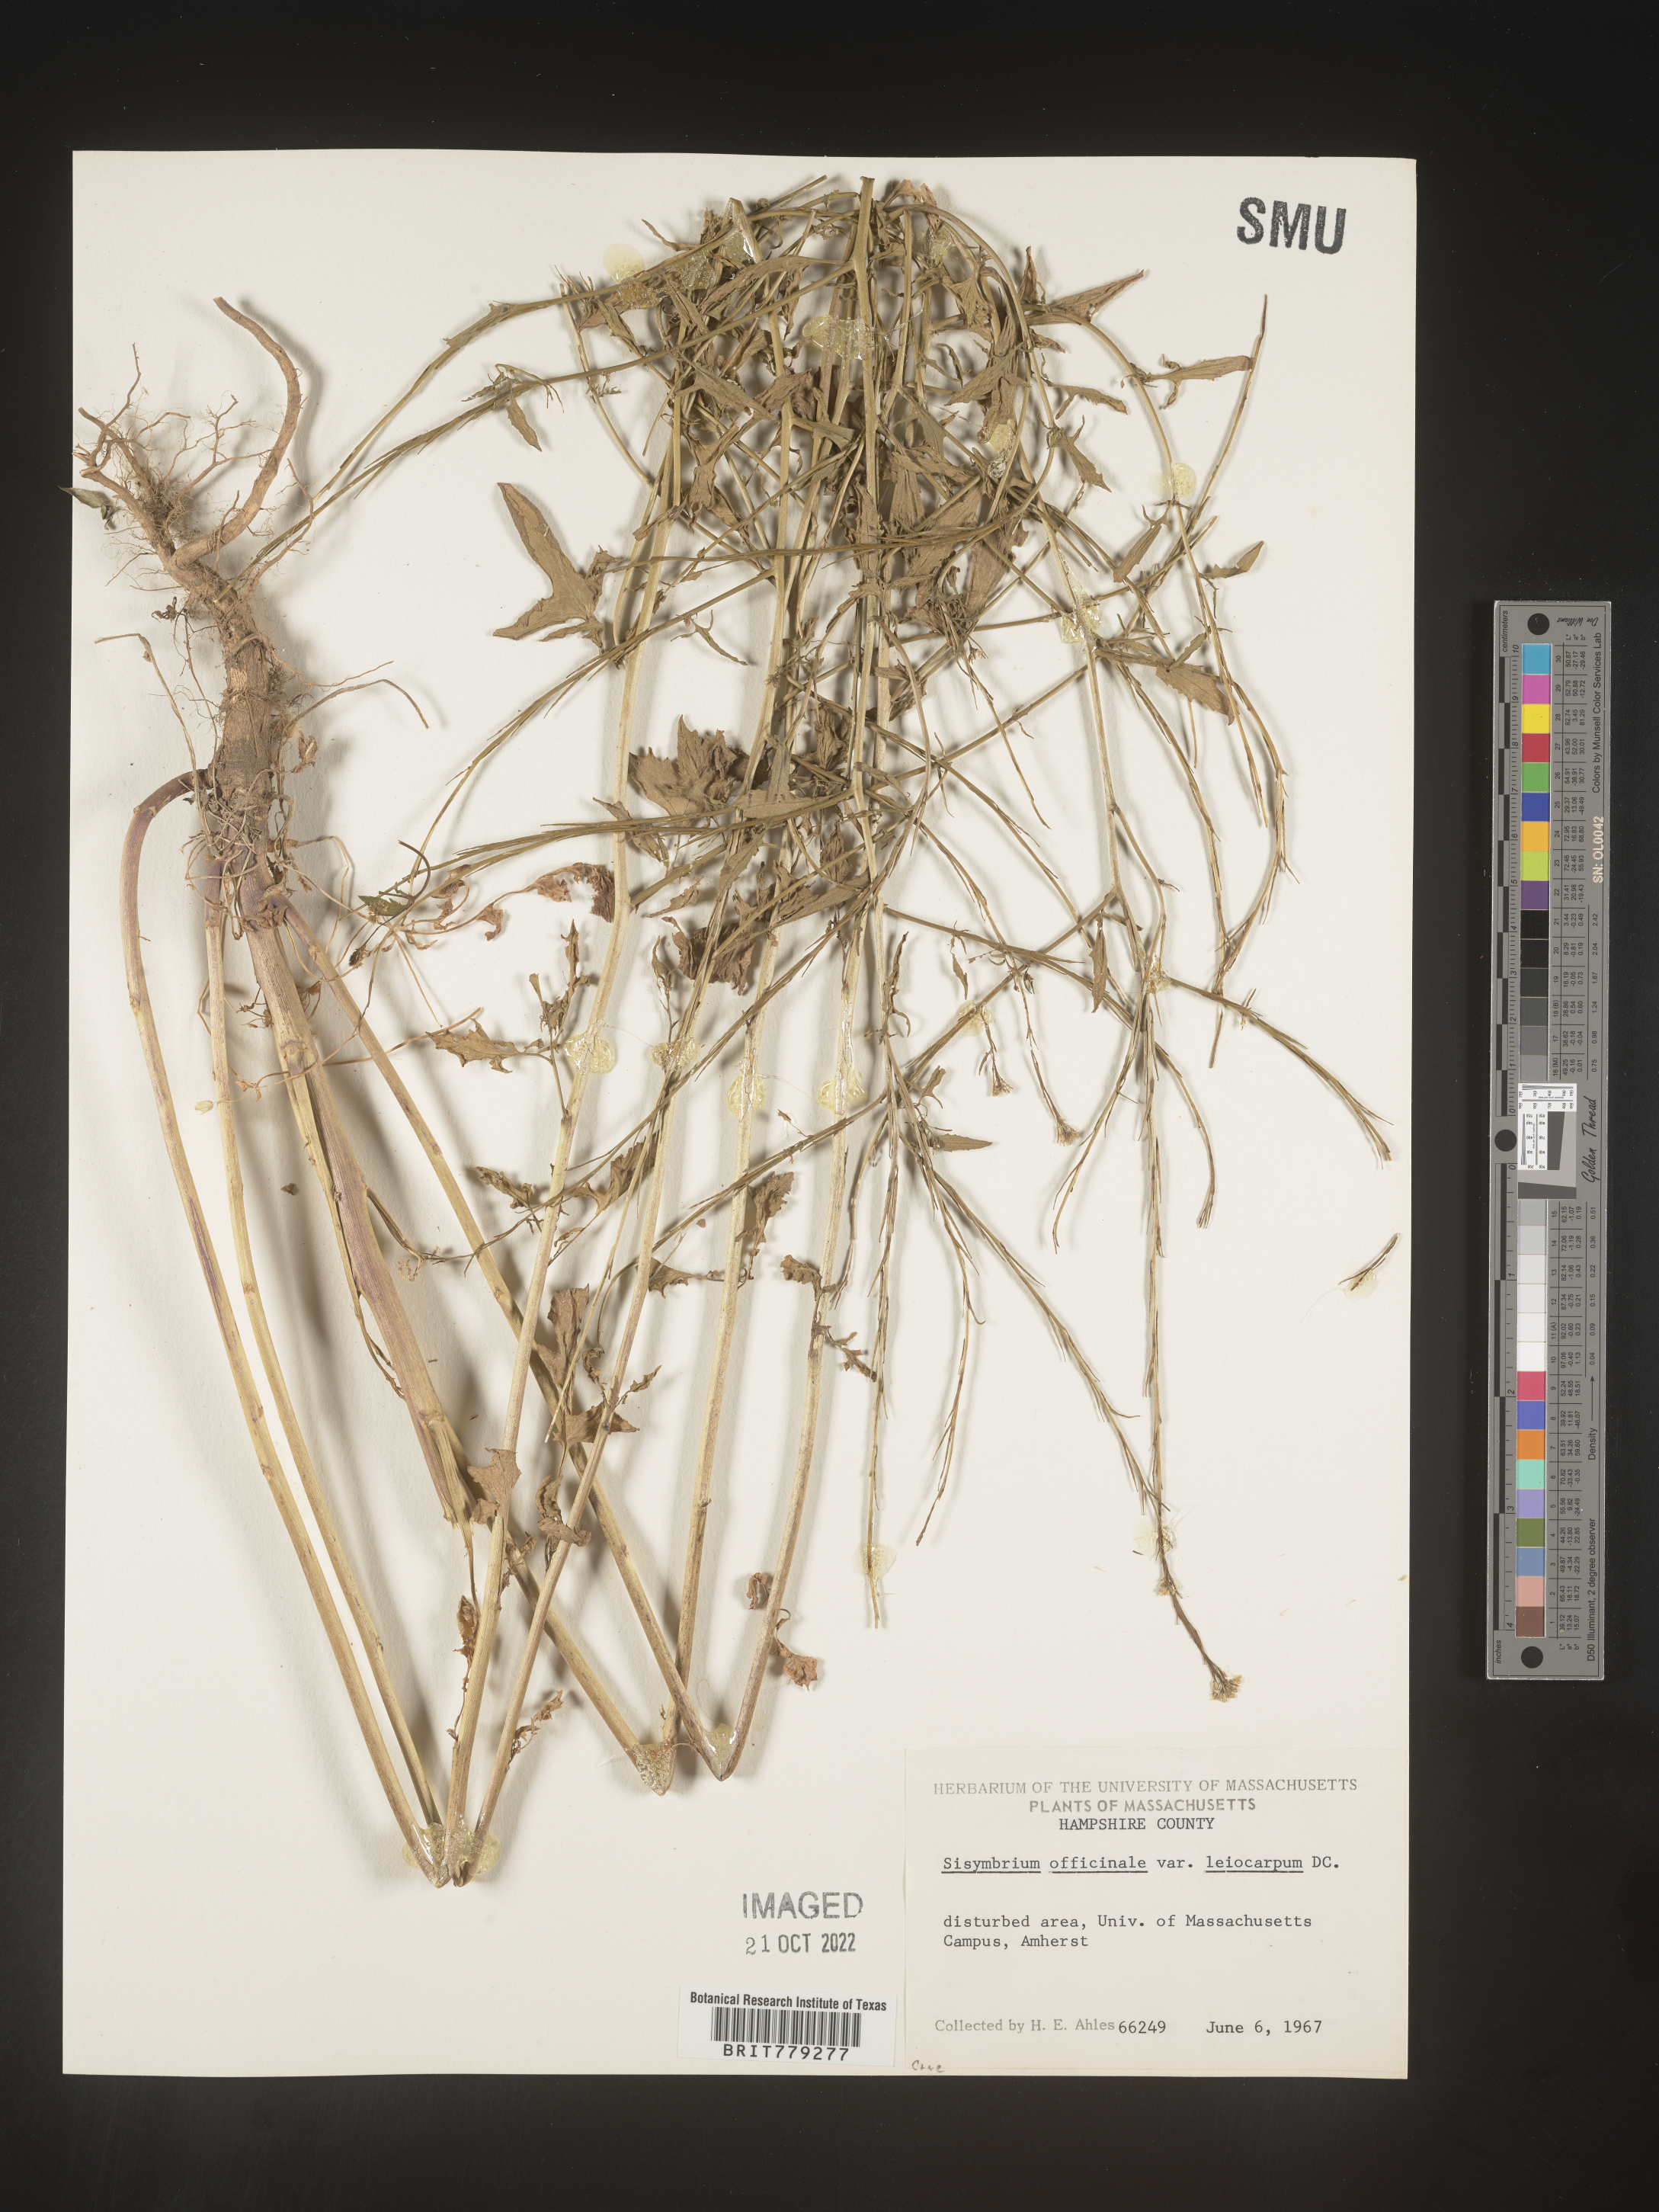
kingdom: Plantae
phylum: Tracheophyta
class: Magnoliopsida
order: Brassicales
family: Brassicaceae
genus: Sisymbrium
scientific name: Sisymbrium officinale
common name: Hedge mustard
